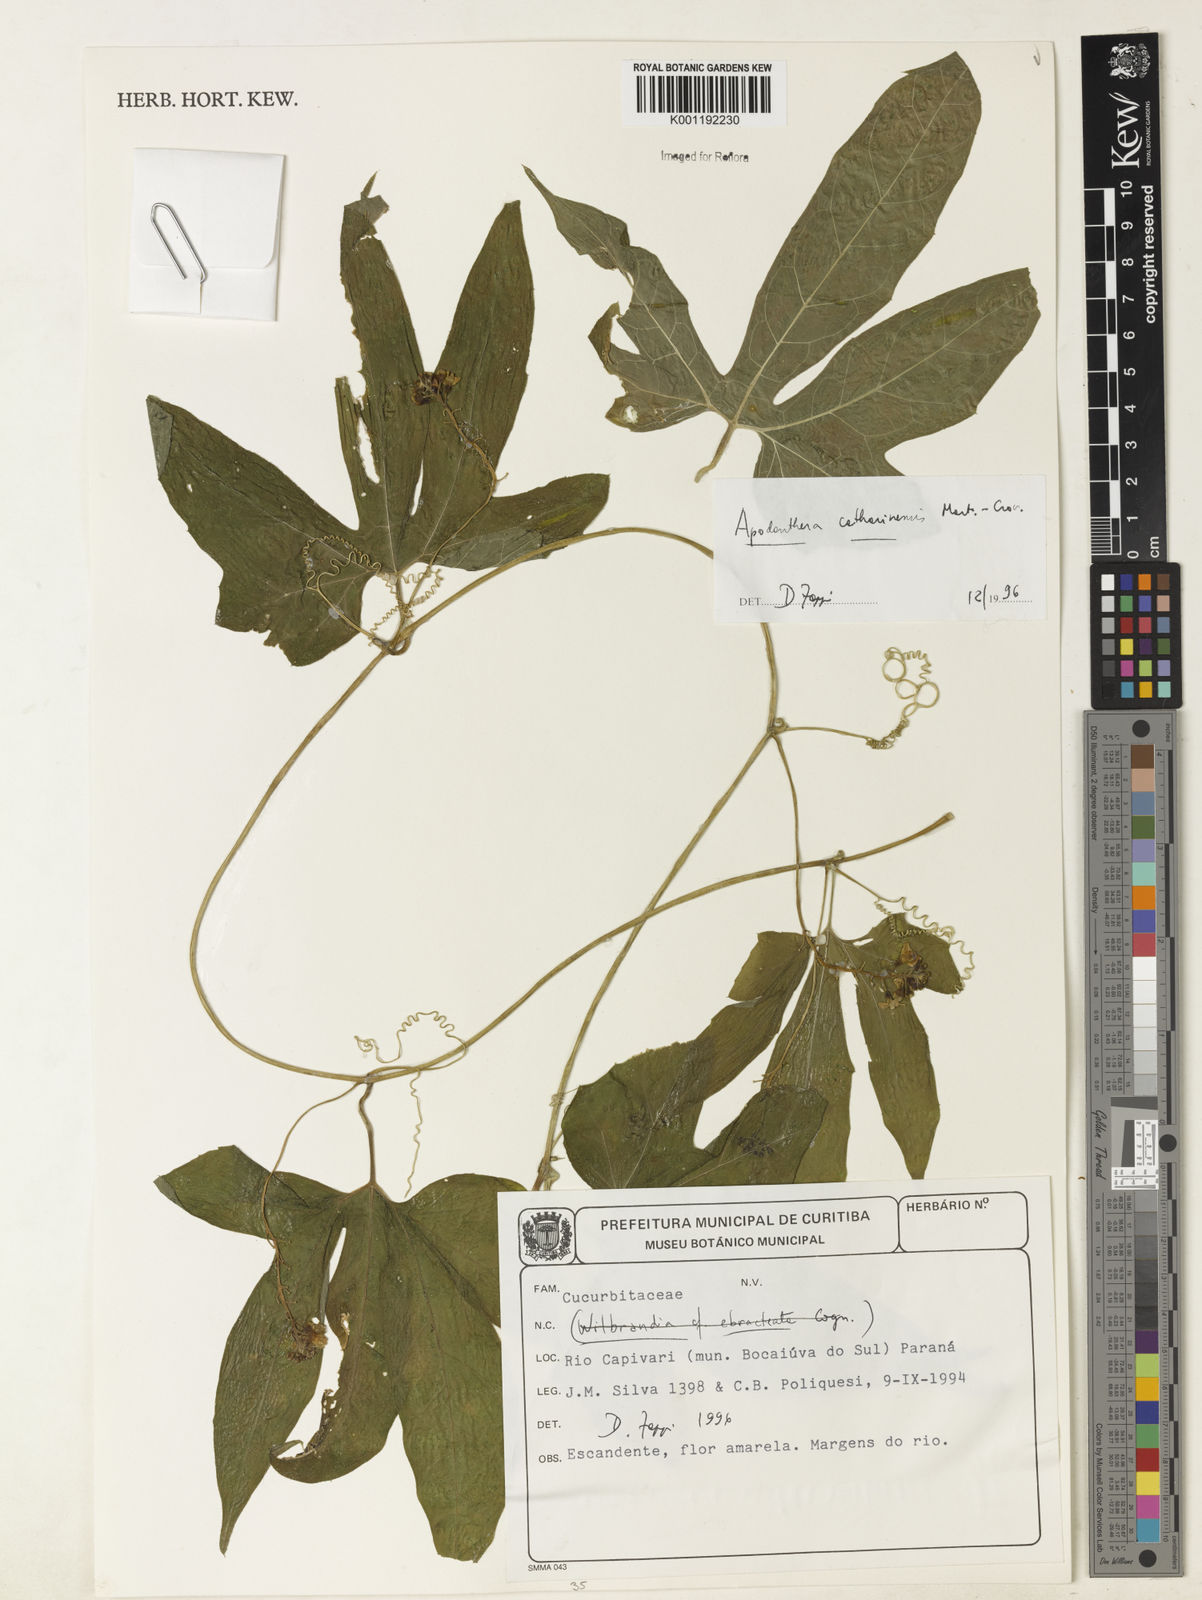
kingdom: Plantae
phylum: Tracheophyta
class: Magnoliopsida
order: Cucurbitales
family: Cucurbitaceae
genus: Apodanthera
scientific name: Apodanthera catharinensis
